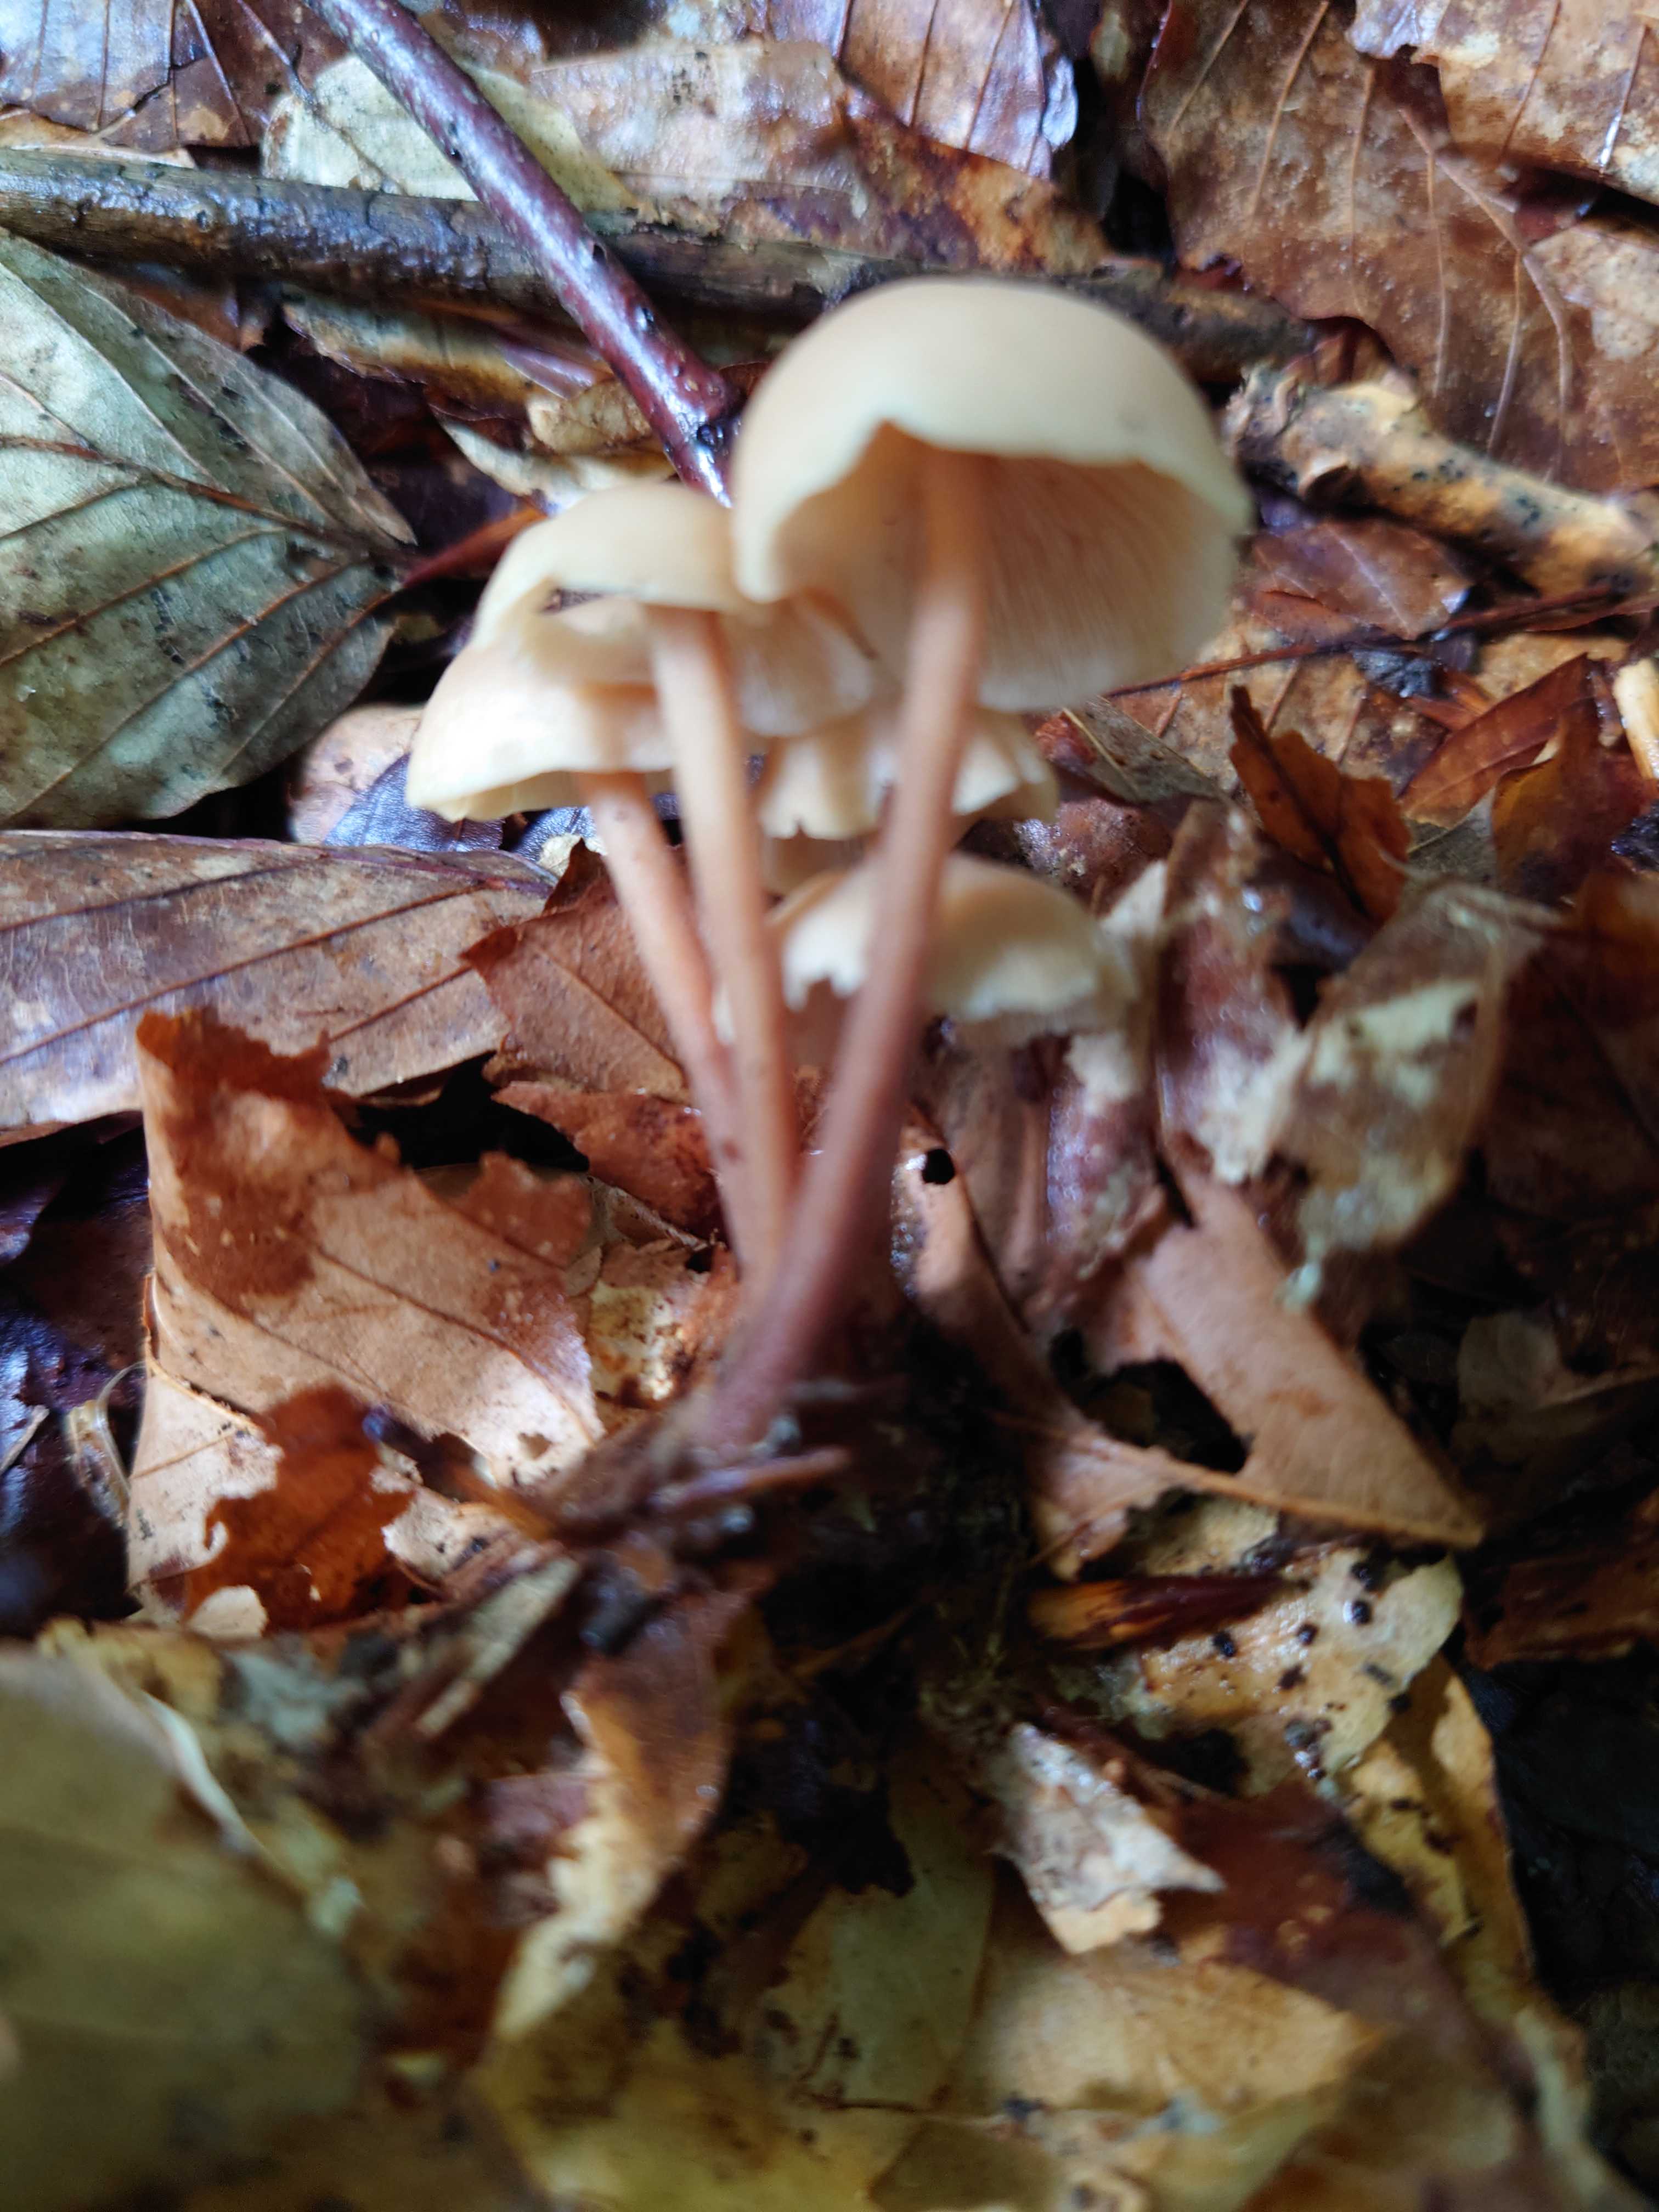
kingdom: Fungi
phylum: Basidiomycota
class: Agaricomycetes
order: Agaricales
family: Omphalotaceae
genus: Collybiopsis
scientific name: Collybiopsis confluens
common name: knippe-fladhat
